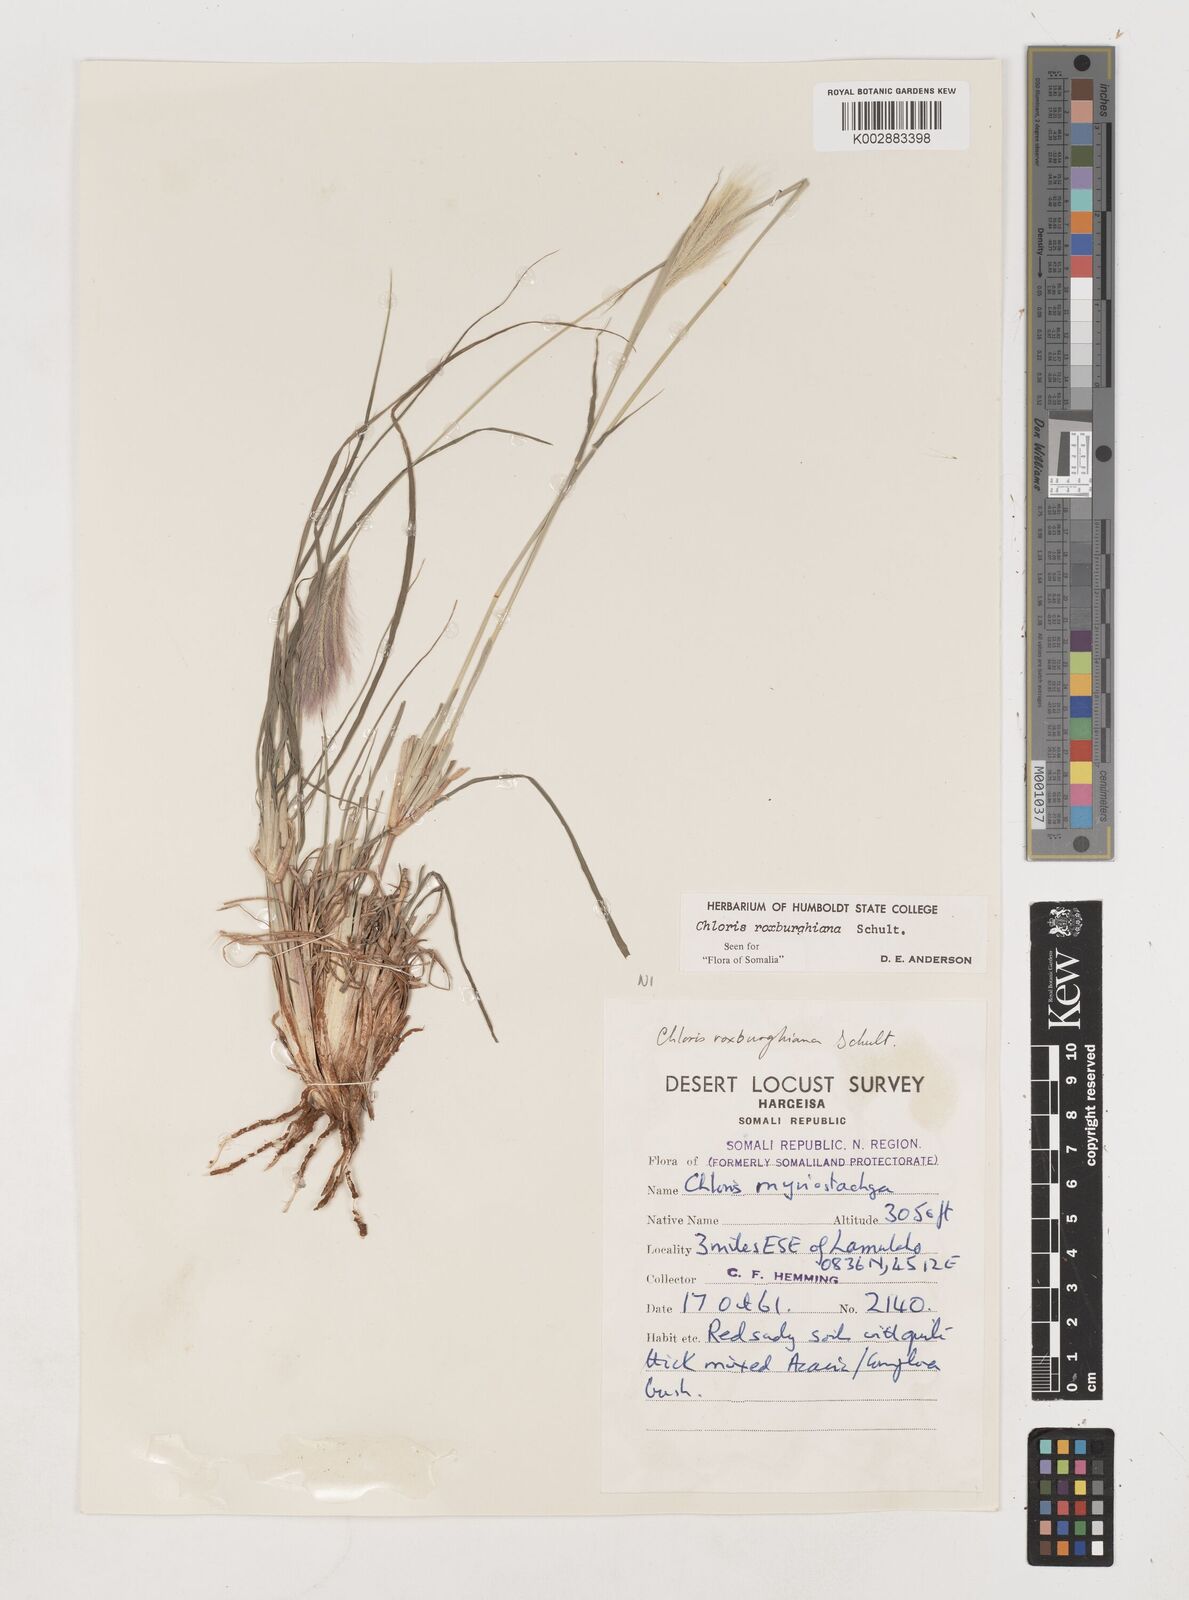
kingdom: Plantae
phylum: Tracheophyta
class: Liliopsida
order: Poales
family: Poaceae
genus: Tetrapogon
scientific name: Tetrapogon roxburghiana
